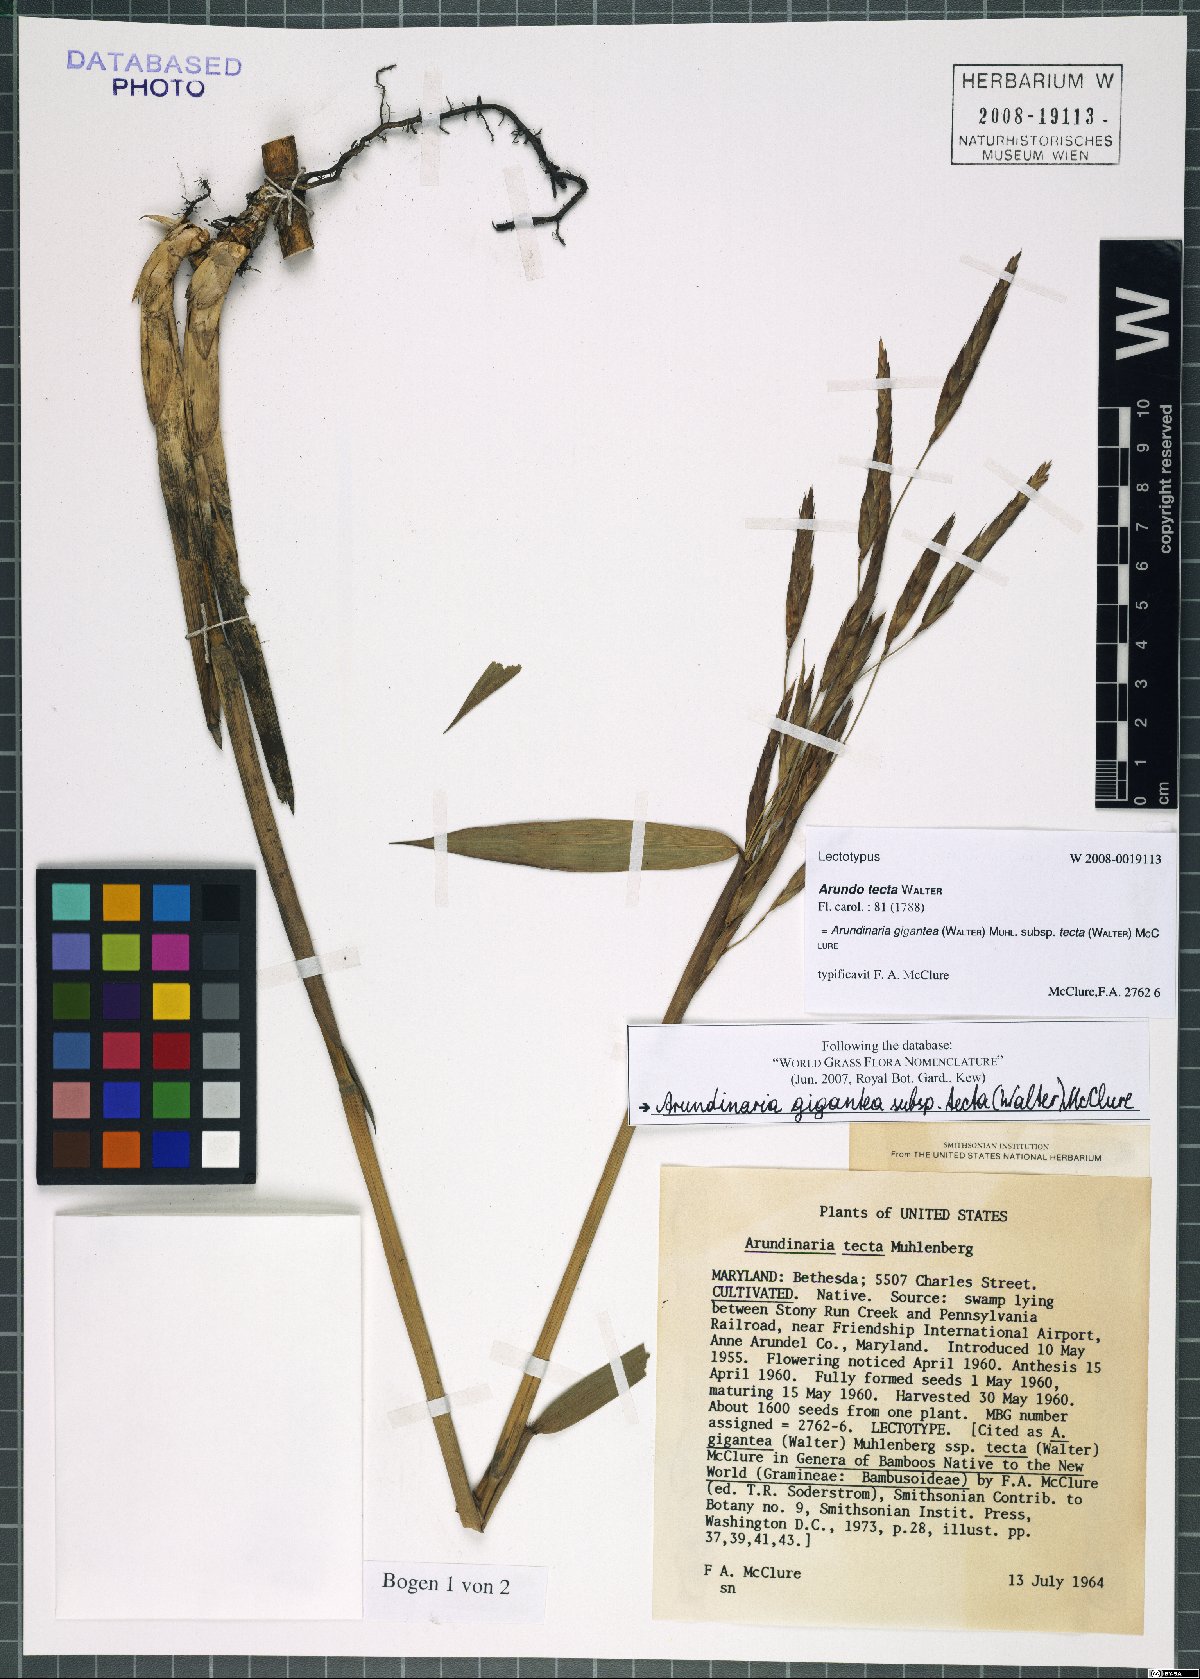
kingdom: Plantae
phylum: Tracheophyta
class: Liliopsida
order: Poales
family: Poaceae
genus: Arundinaria
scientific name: Arundinaria tecta
